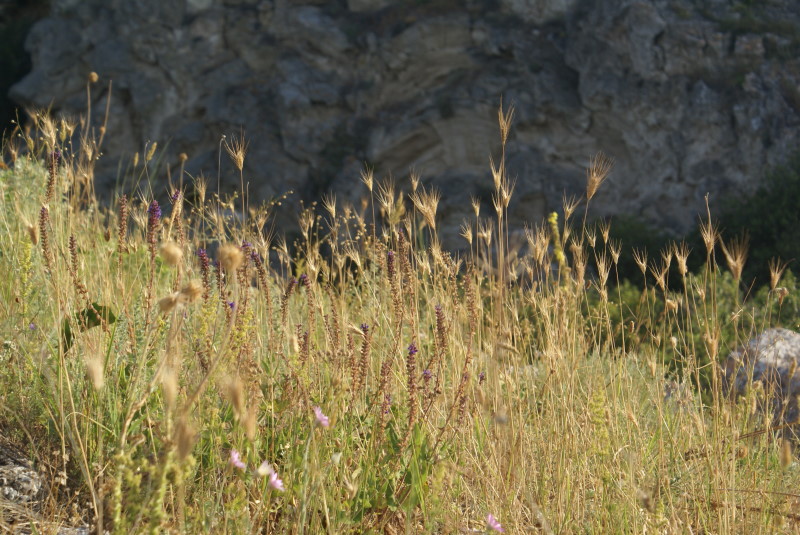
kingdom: Plantae
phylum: Tracheophyta
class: Liliopsida
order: Poales
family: Poaceae
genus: Hordeum
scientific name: Hordeum marinum
